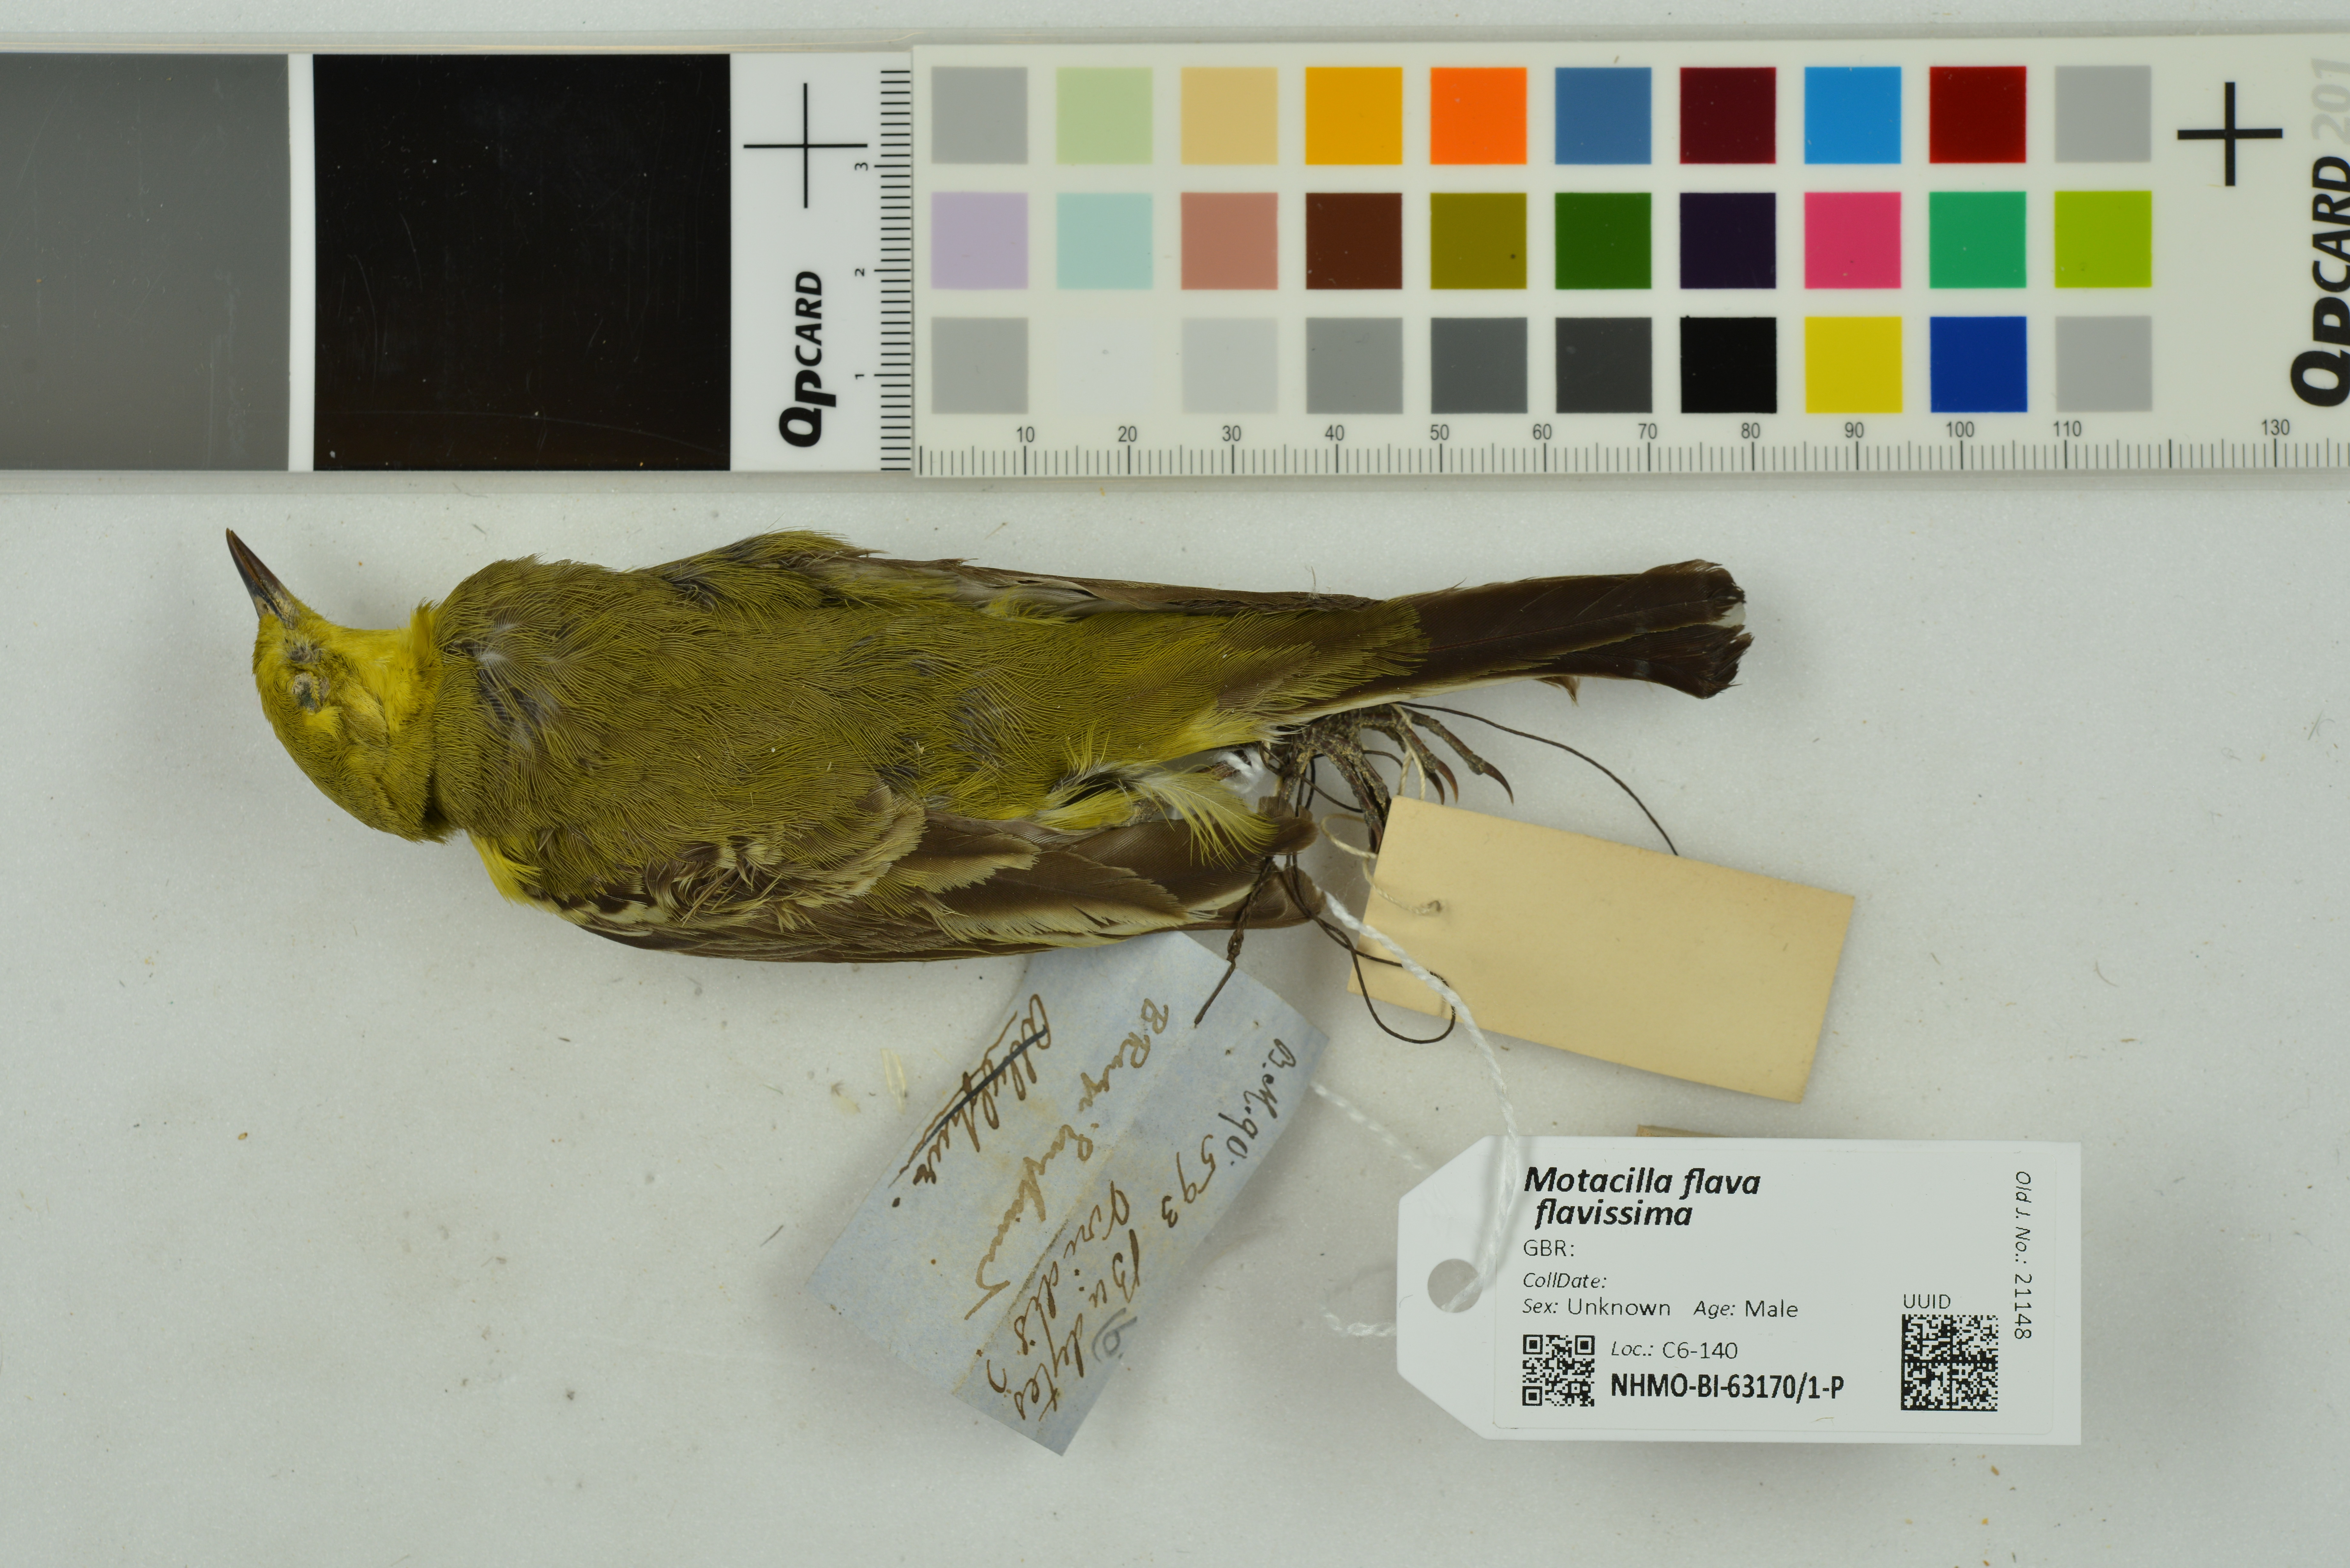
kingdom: Animalia
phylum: Chordata
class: Aves
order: Passeriformes
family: Motacillidae
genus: Motacilla
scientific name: Motacilla flava
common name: Western yellow wagtail
